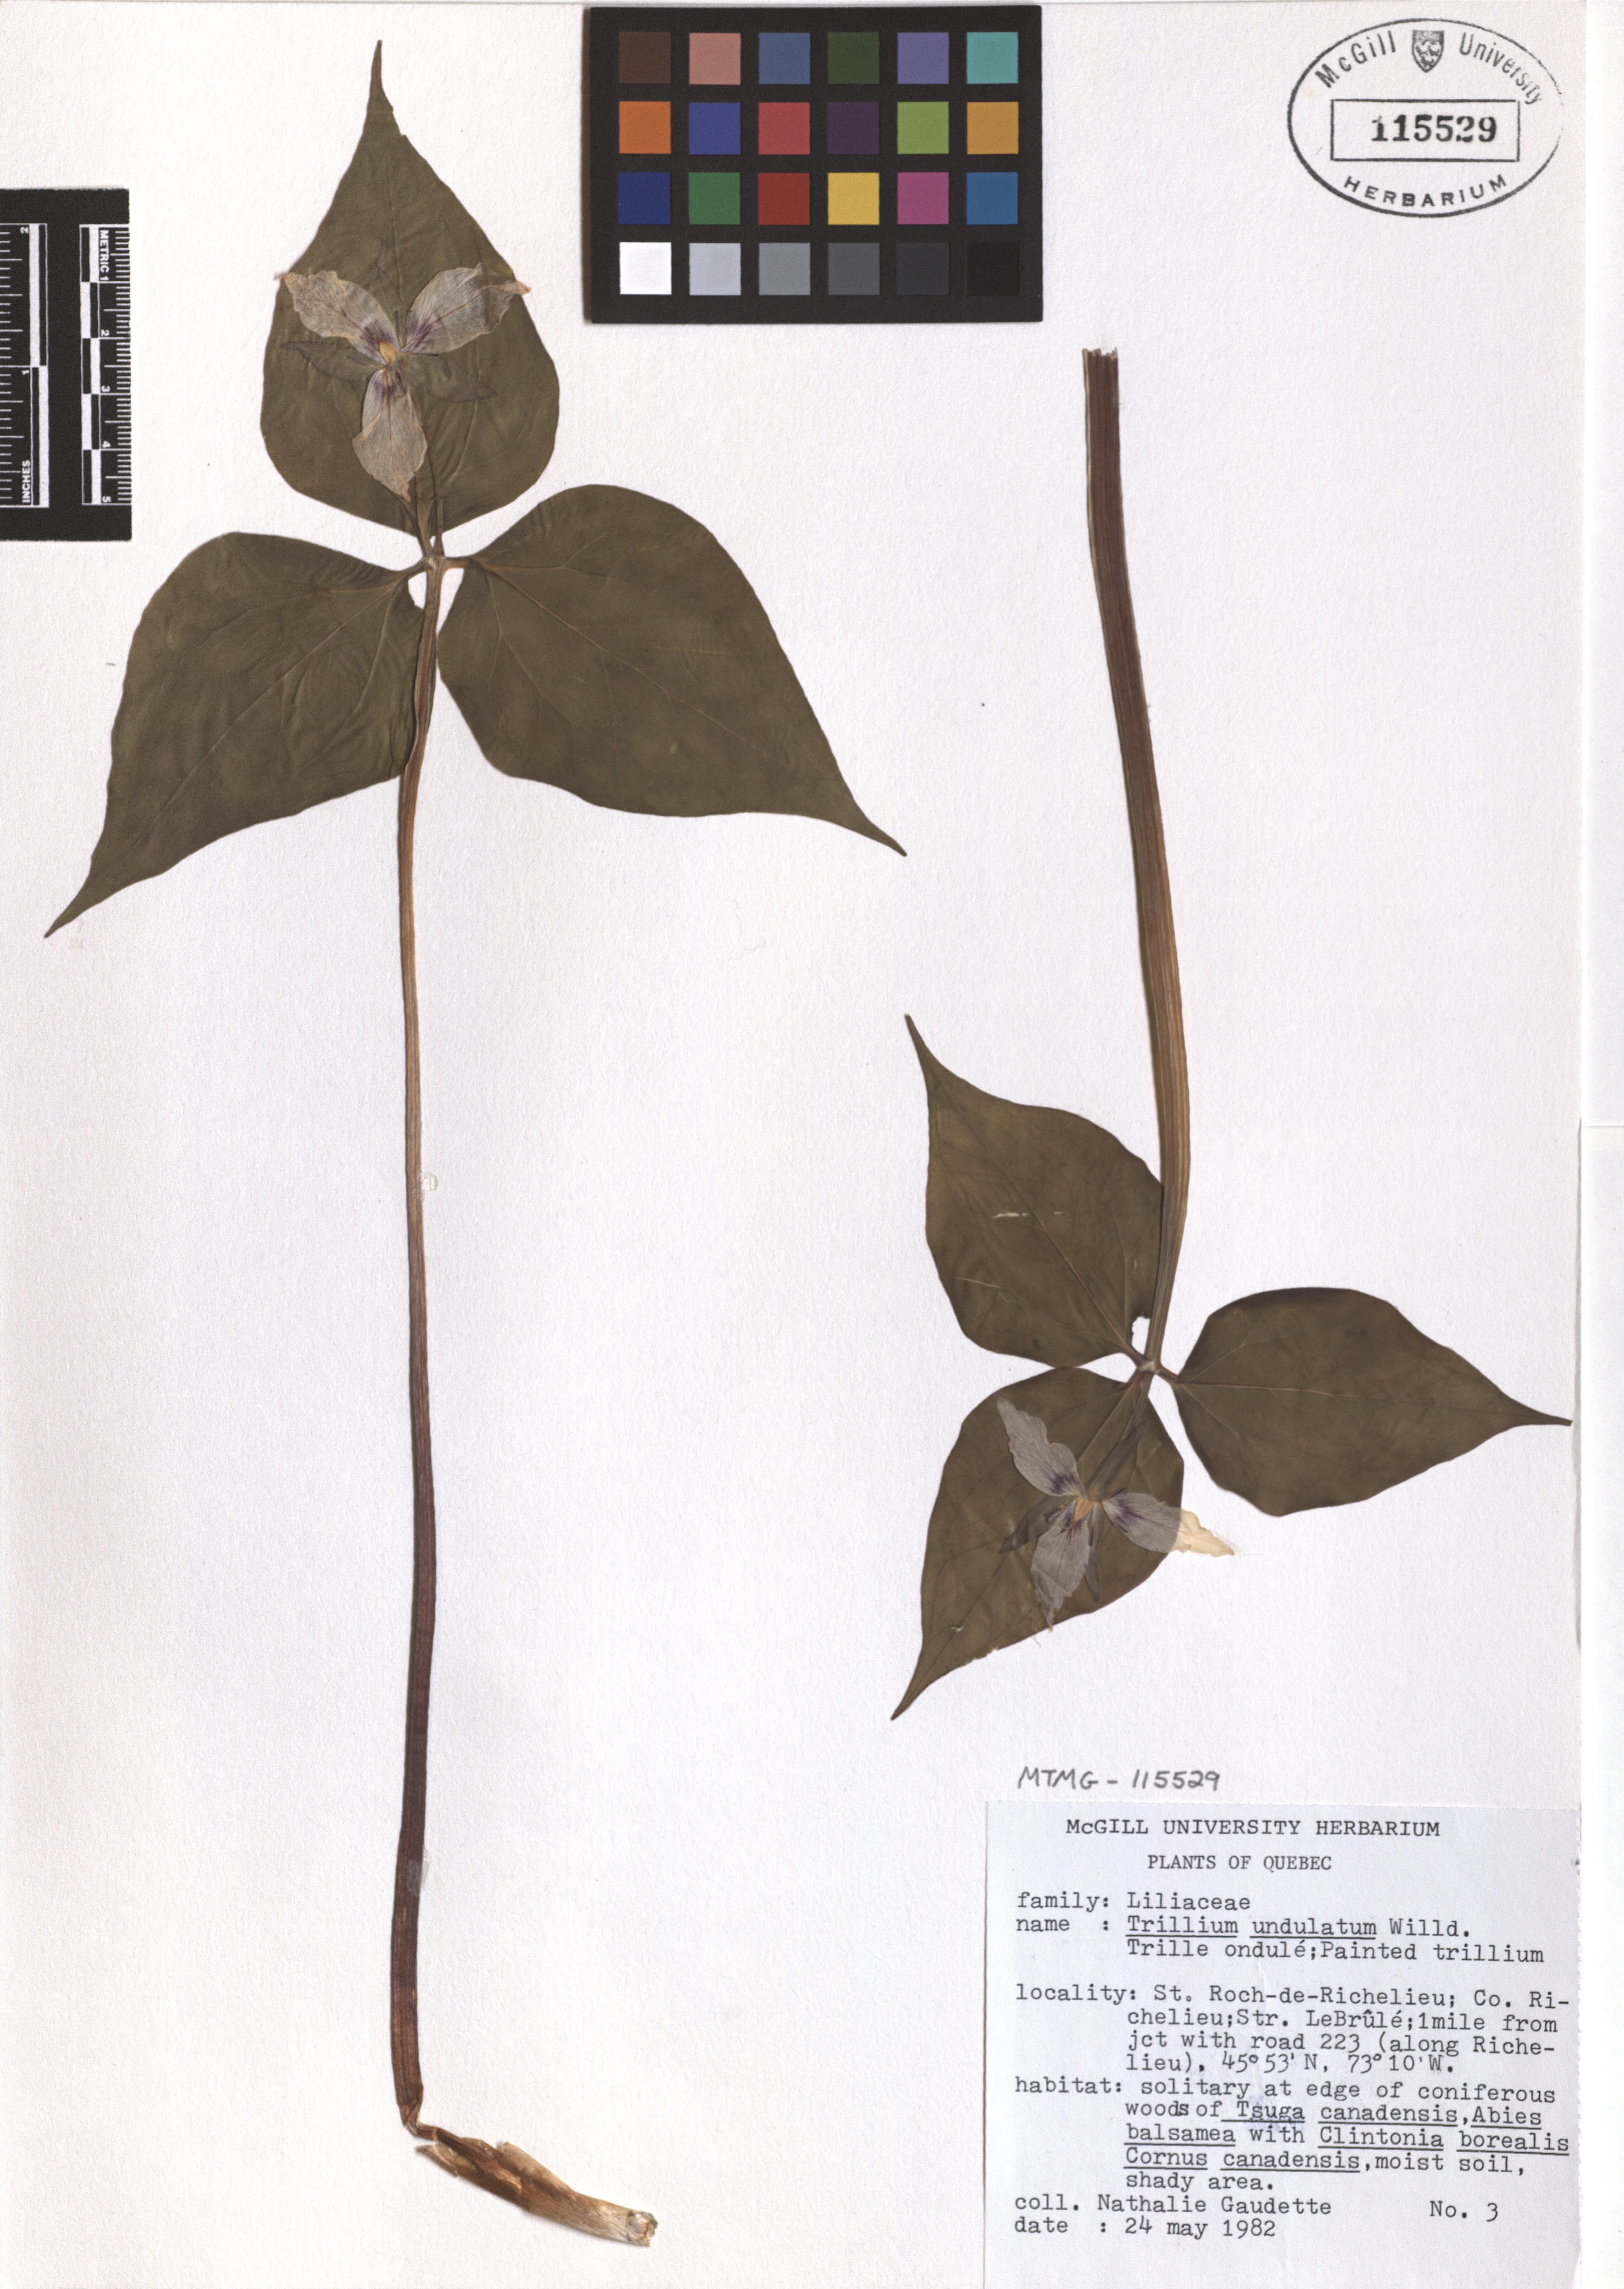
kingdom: Plantae
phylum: Tracheophyta
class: Liliopsida
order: Liliales
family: Melanthiaceae
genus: Trillium
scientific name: Trillium undulatum
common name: Paint trillium
